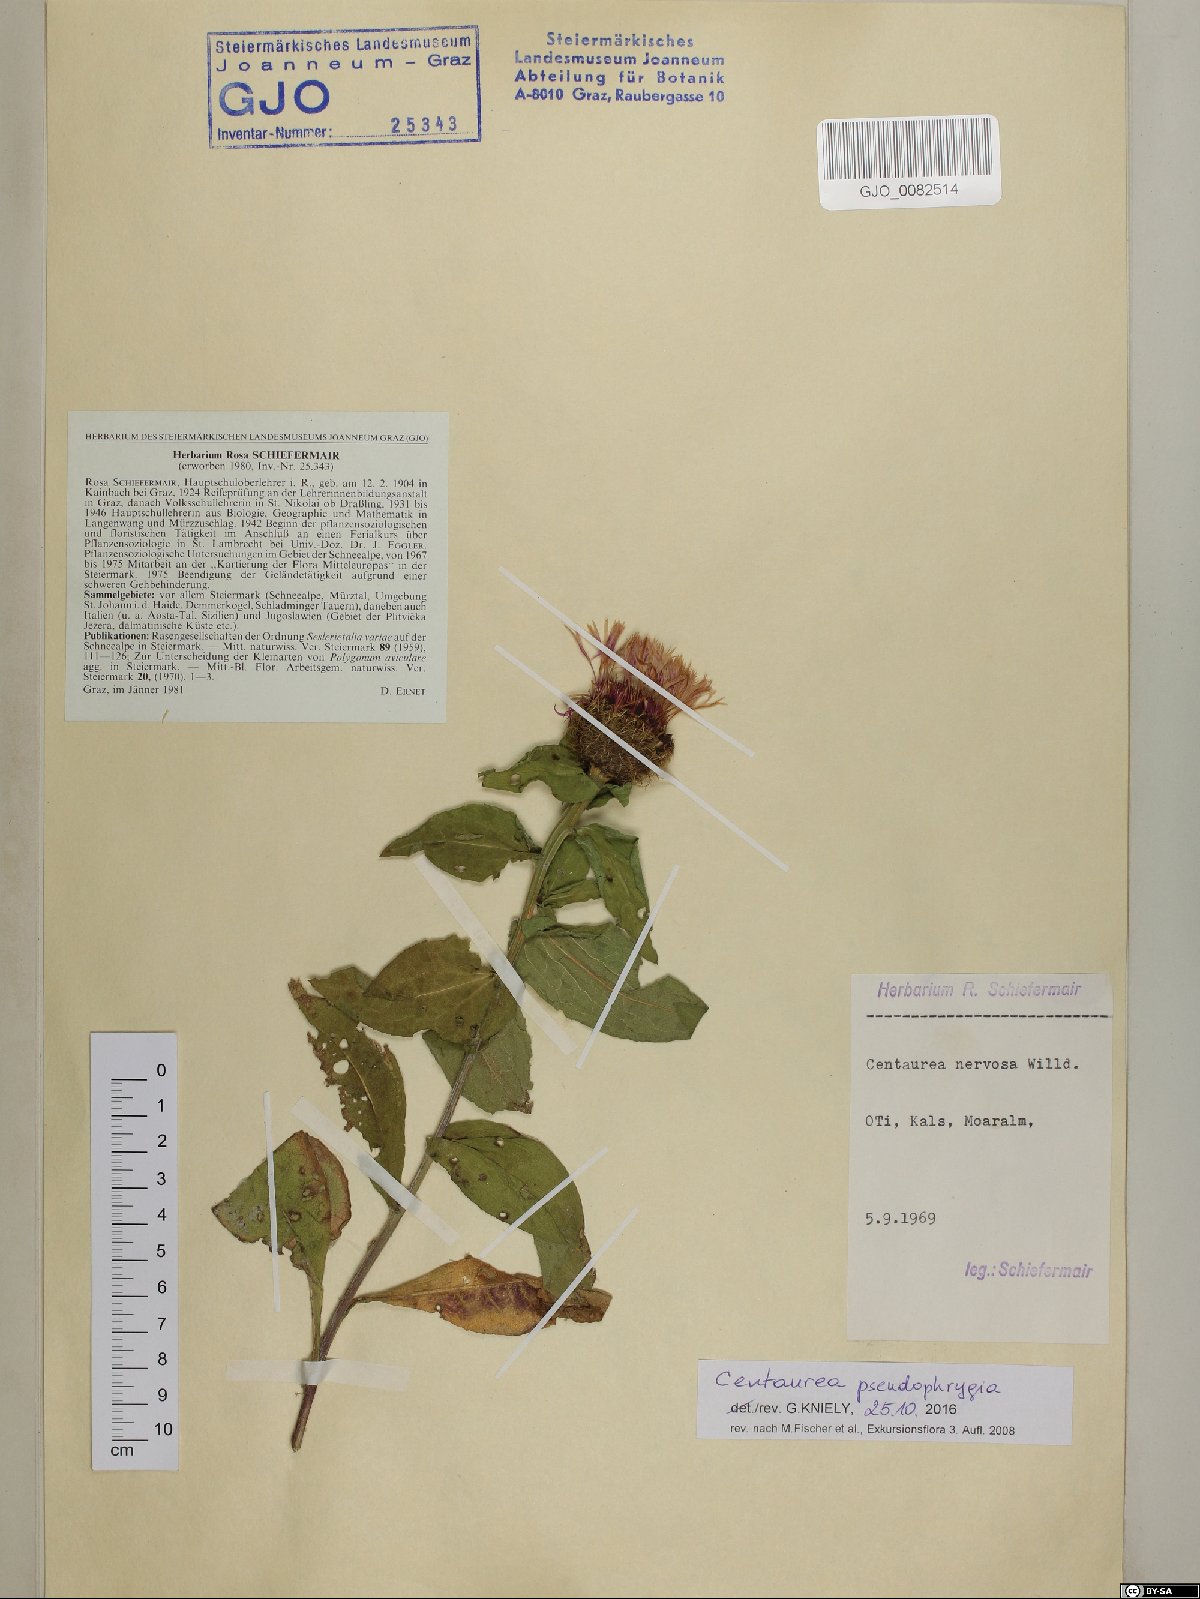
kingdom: Plantae
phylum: Tracheophyta
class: Magnoliopsida
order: Asterales
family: Asteraceae
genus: Centaurea
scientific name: Centaurea pseudophrygia
